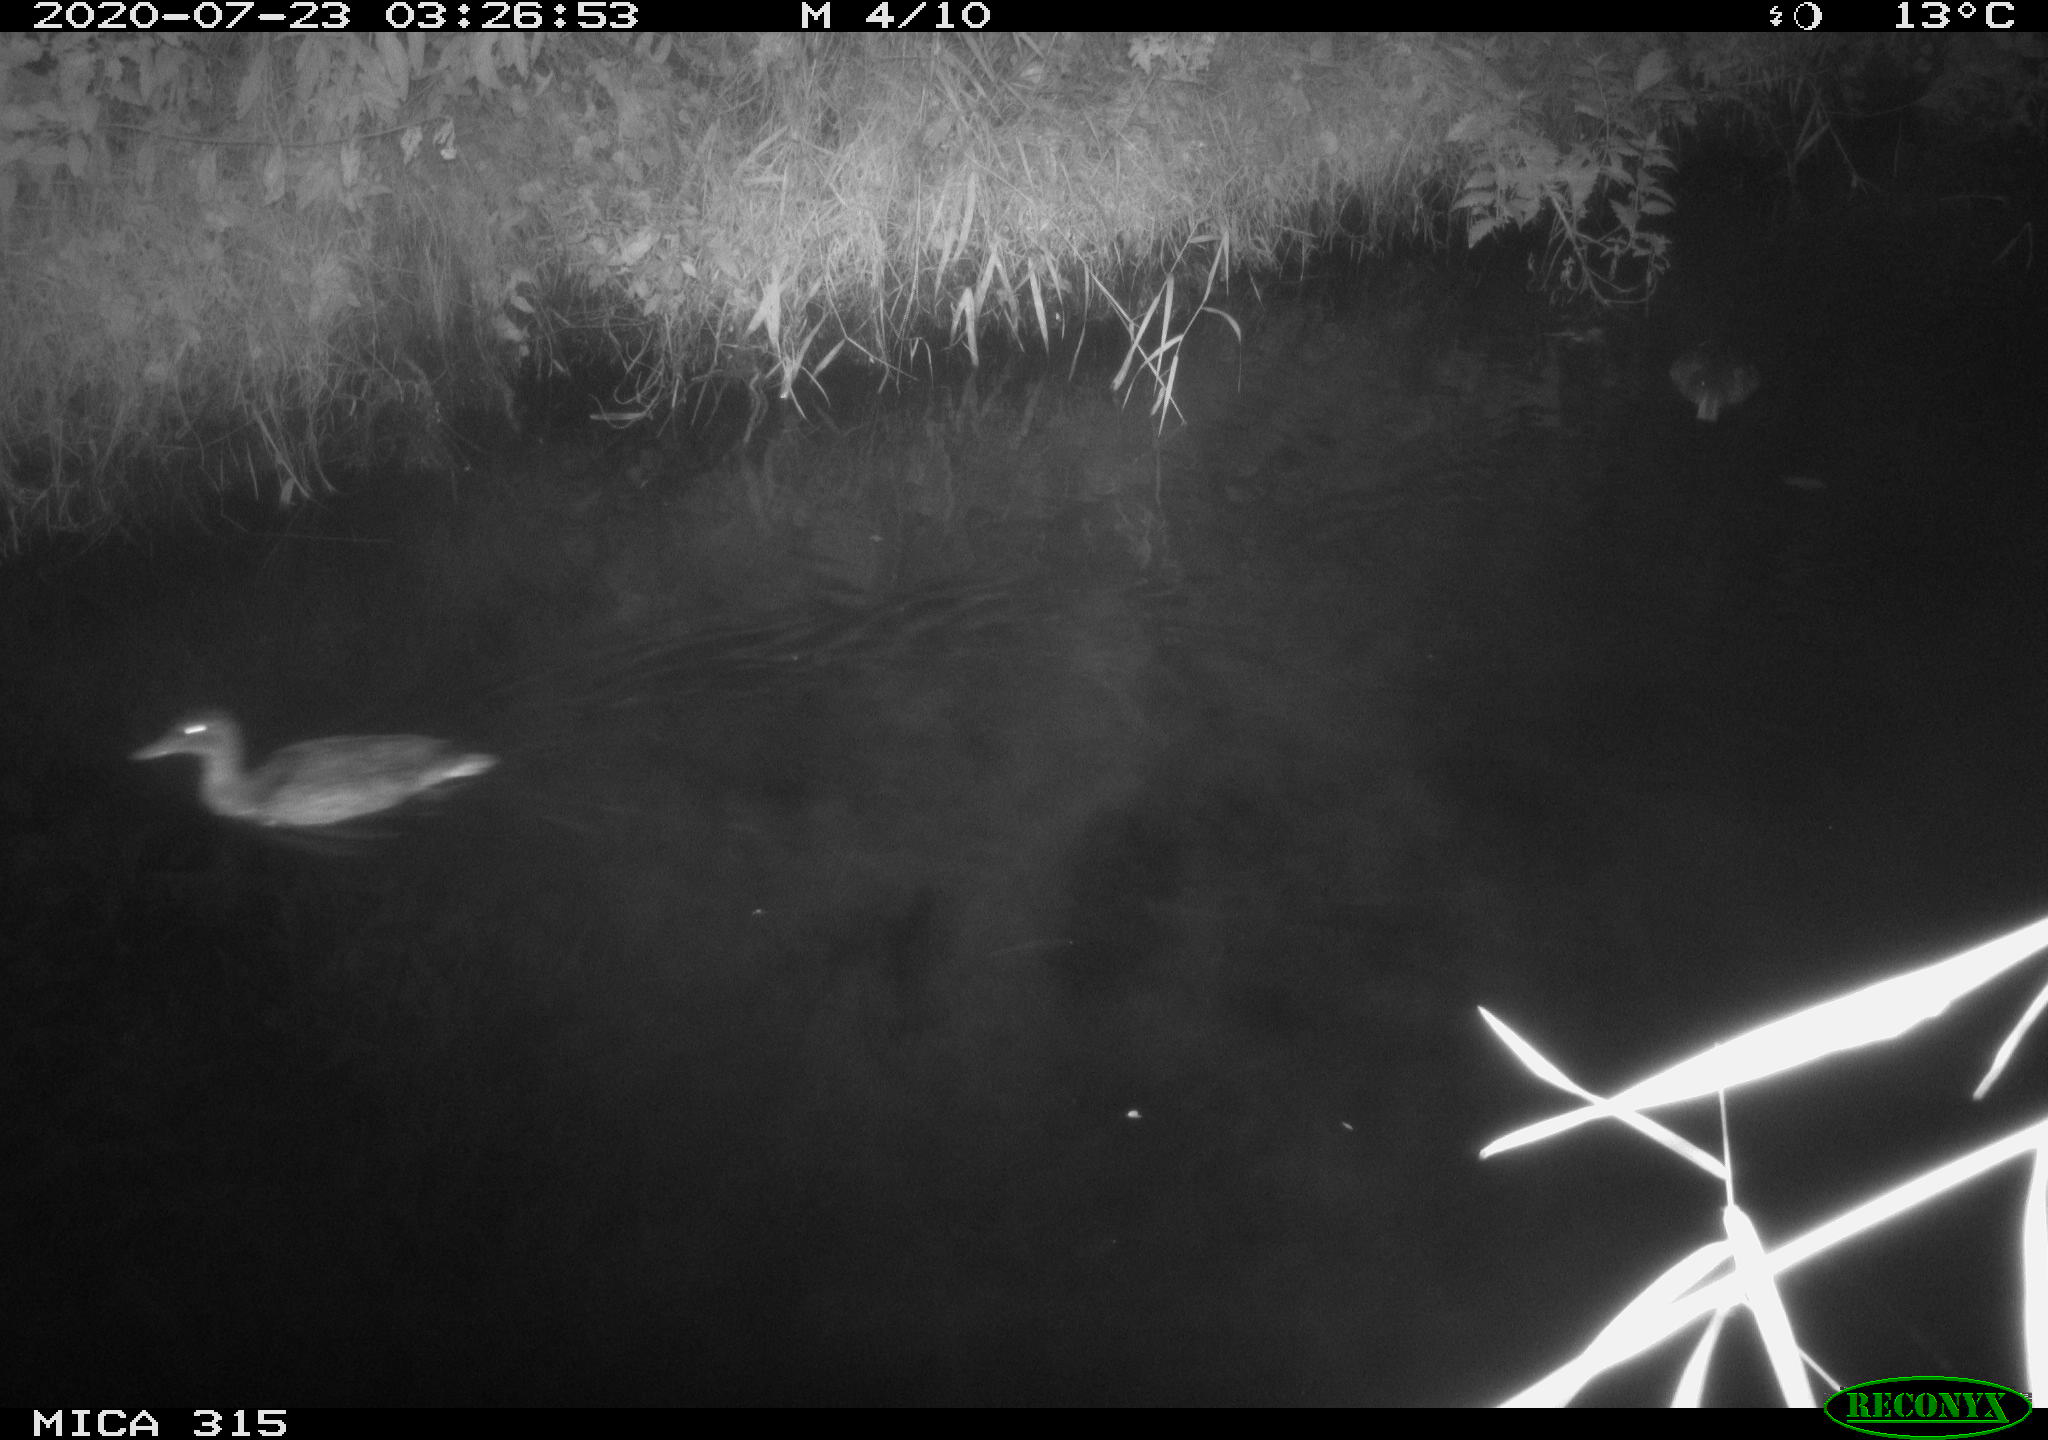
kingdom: Animalia
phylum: Chordata
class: Aves
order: Anseriformes
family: Anatidae
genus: Anas
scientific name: Anas platyrhynchos
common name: Mallard
